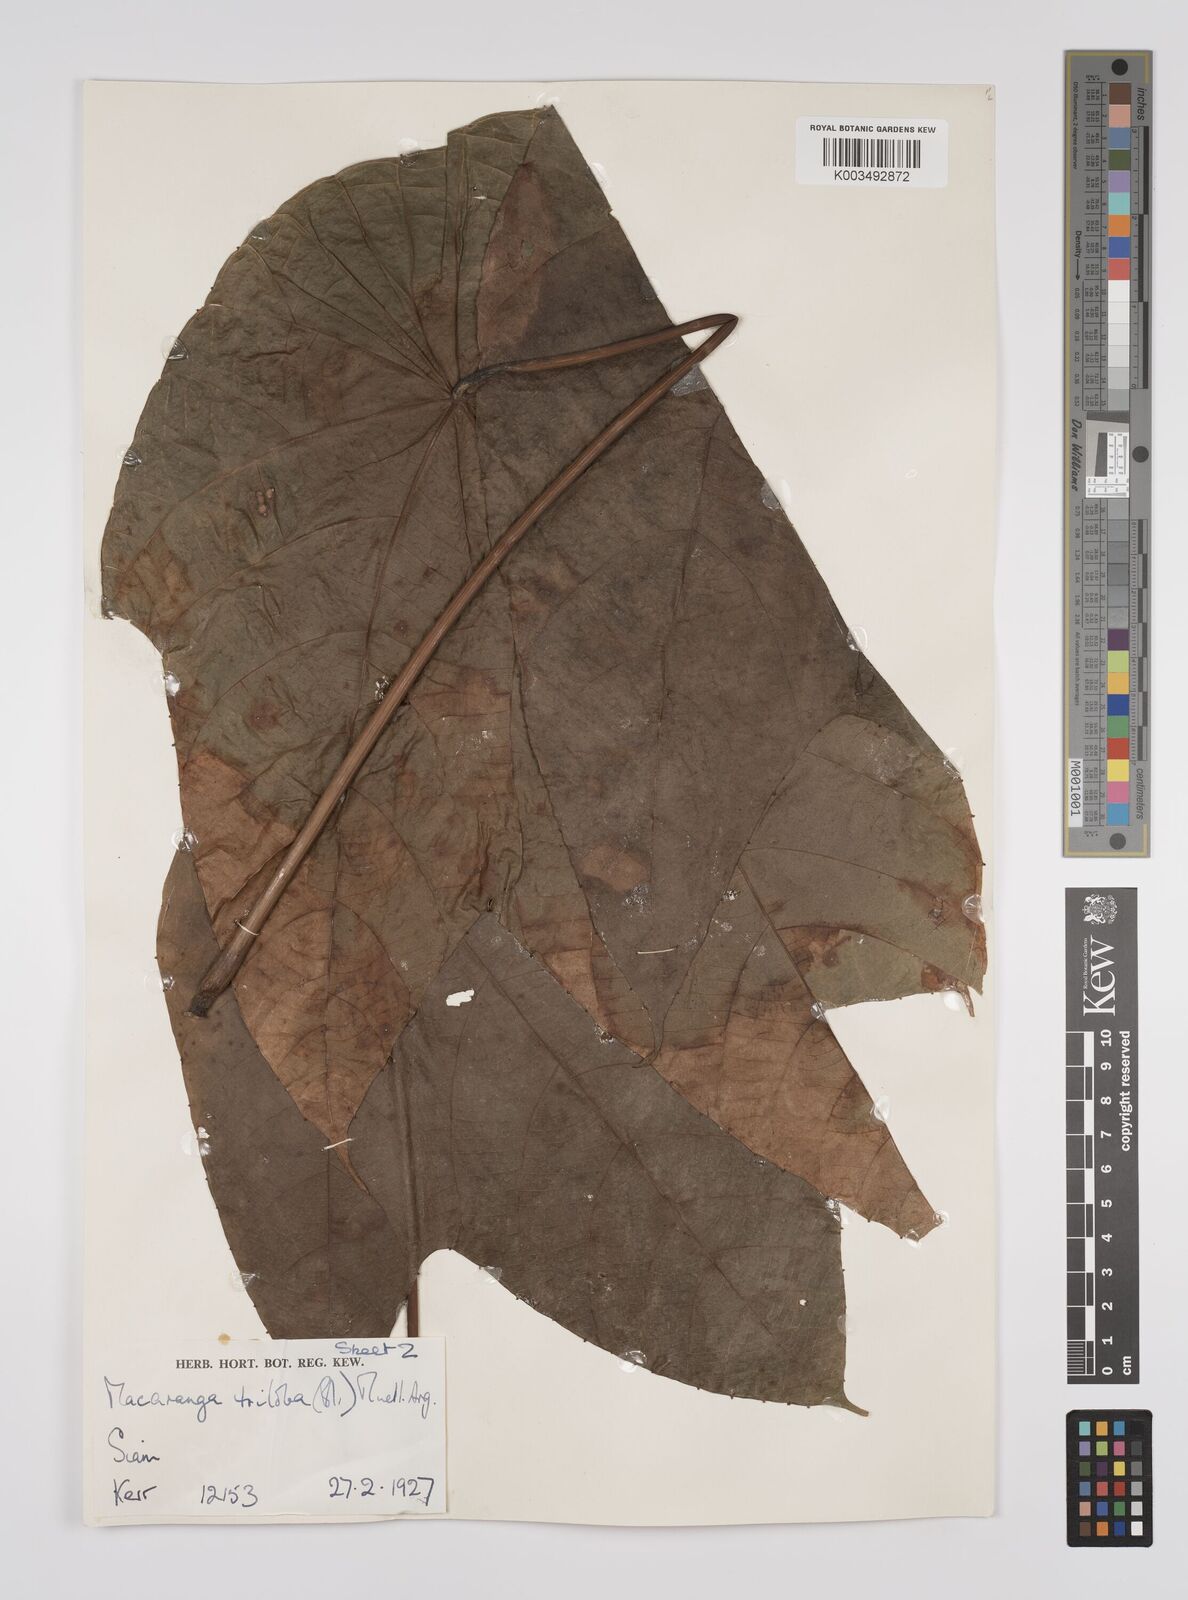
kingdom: Plantae
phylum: Tracheophyta
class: Magnoliopsida
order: Malpighiales
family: Euphorbiaceae
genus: Macaranga
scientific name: Macaranga triloba
